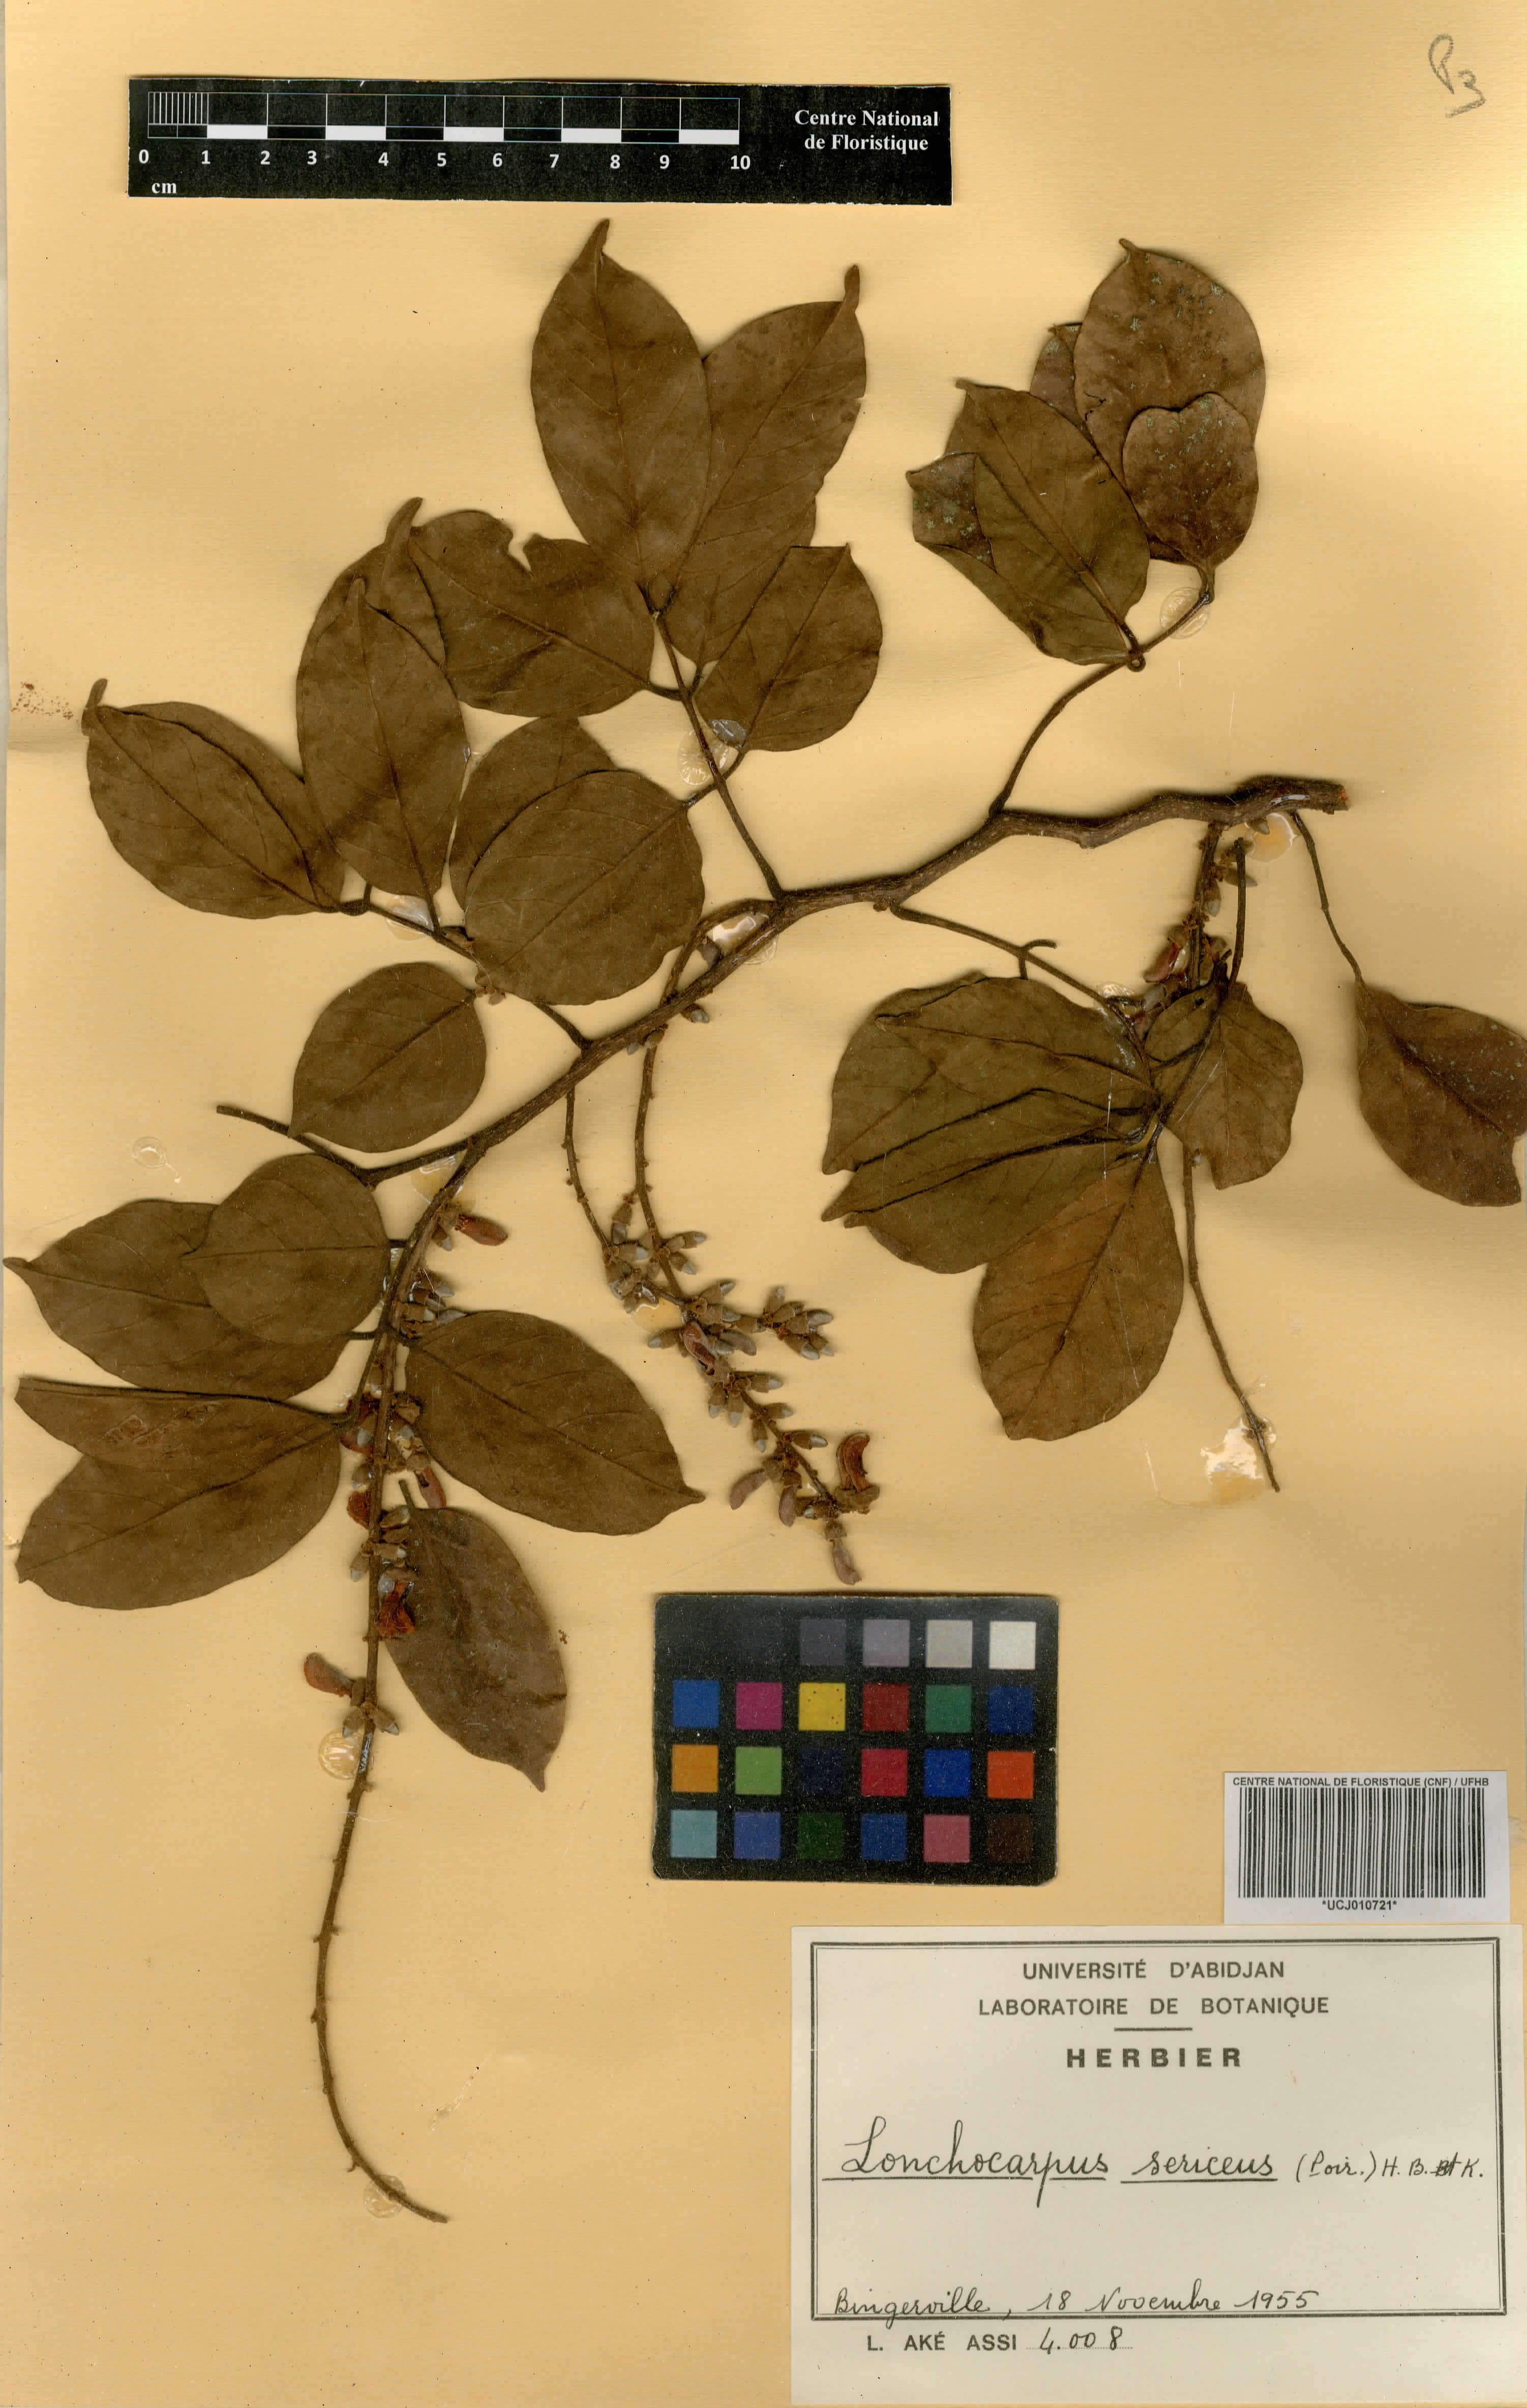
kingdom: Plantae
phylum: Tracheophyta
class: Magnoliopsida
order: Fabales
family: Fabaceae
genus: Lonchocarpus
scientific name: Lonchocarpus sericeus
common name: Savonette
